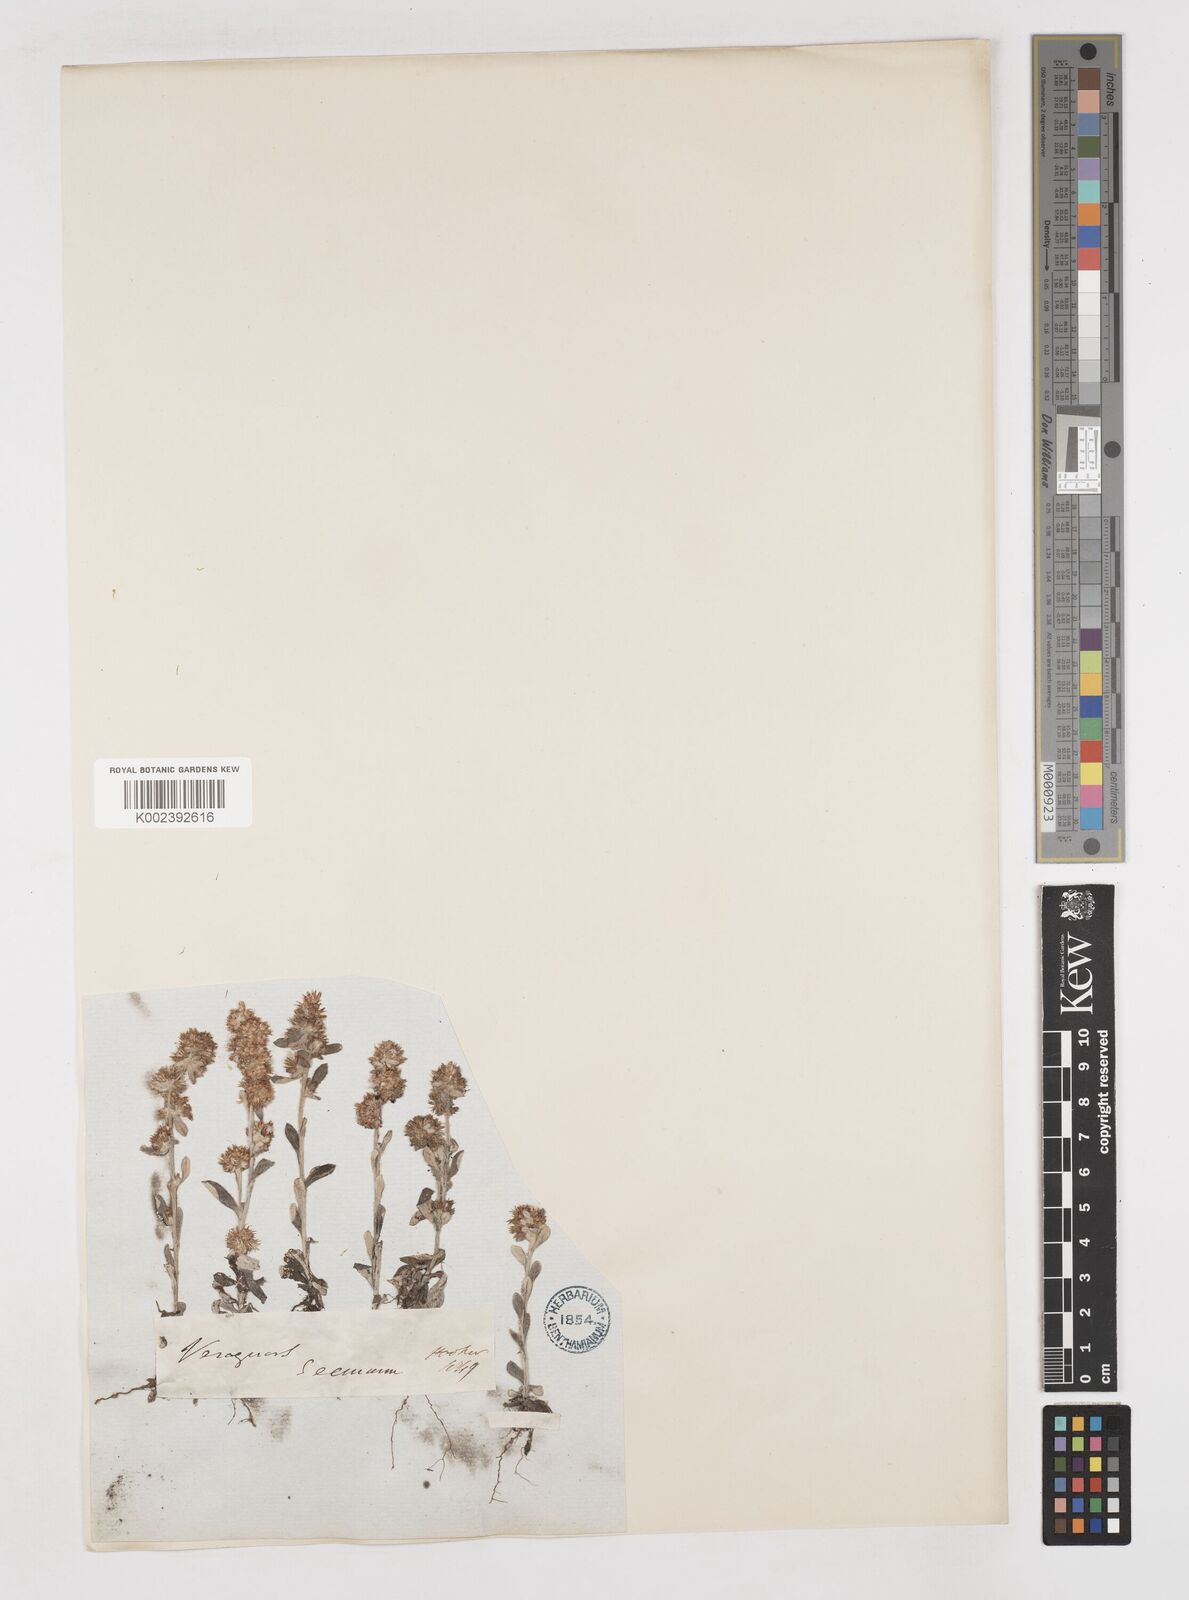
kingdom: Plantae
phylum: Tracheophyta
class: Magnoliopsida
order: Asterales
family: Asteraceae
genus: Gamochaeta
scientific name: Gamochaeta sphacelata
